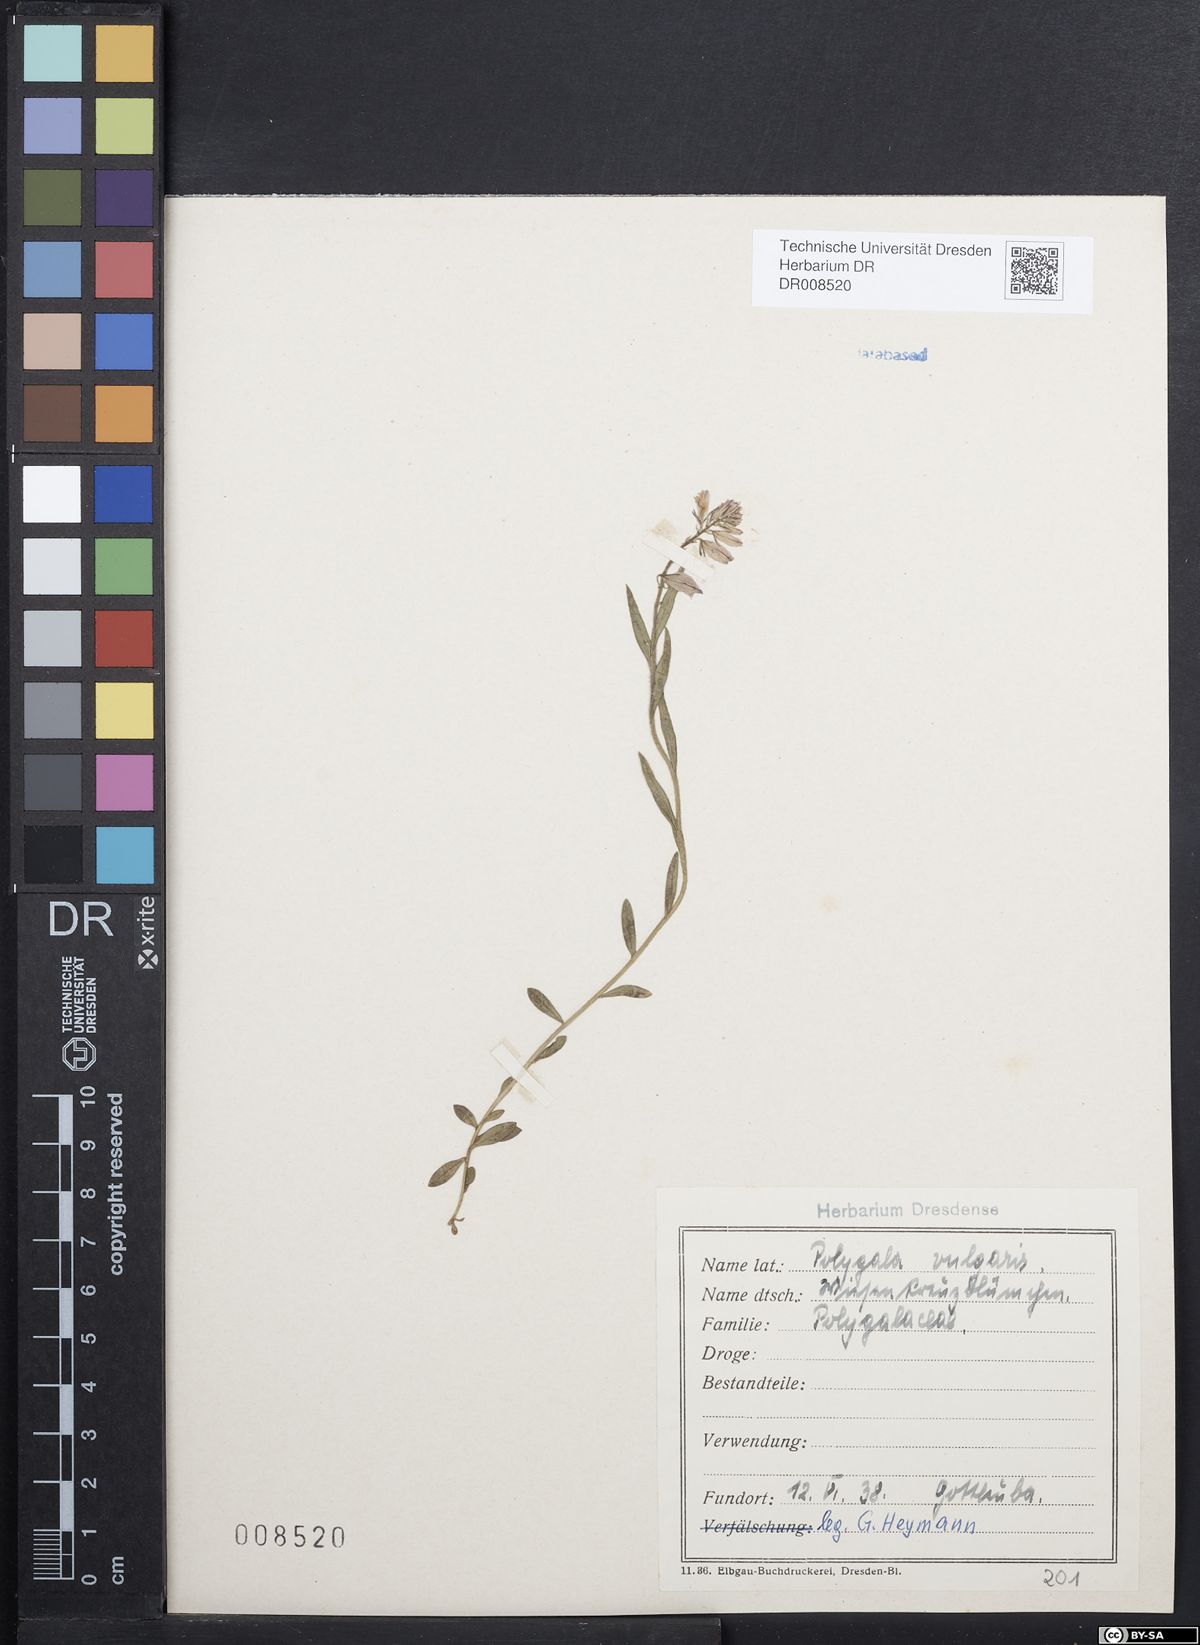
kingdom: Plantae
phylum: Tracheophyta
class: Magnoliopsida
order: Fabales
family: Polygalaceae
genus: Polygala
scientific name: Polygala vulgaris
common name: Common milkwort
